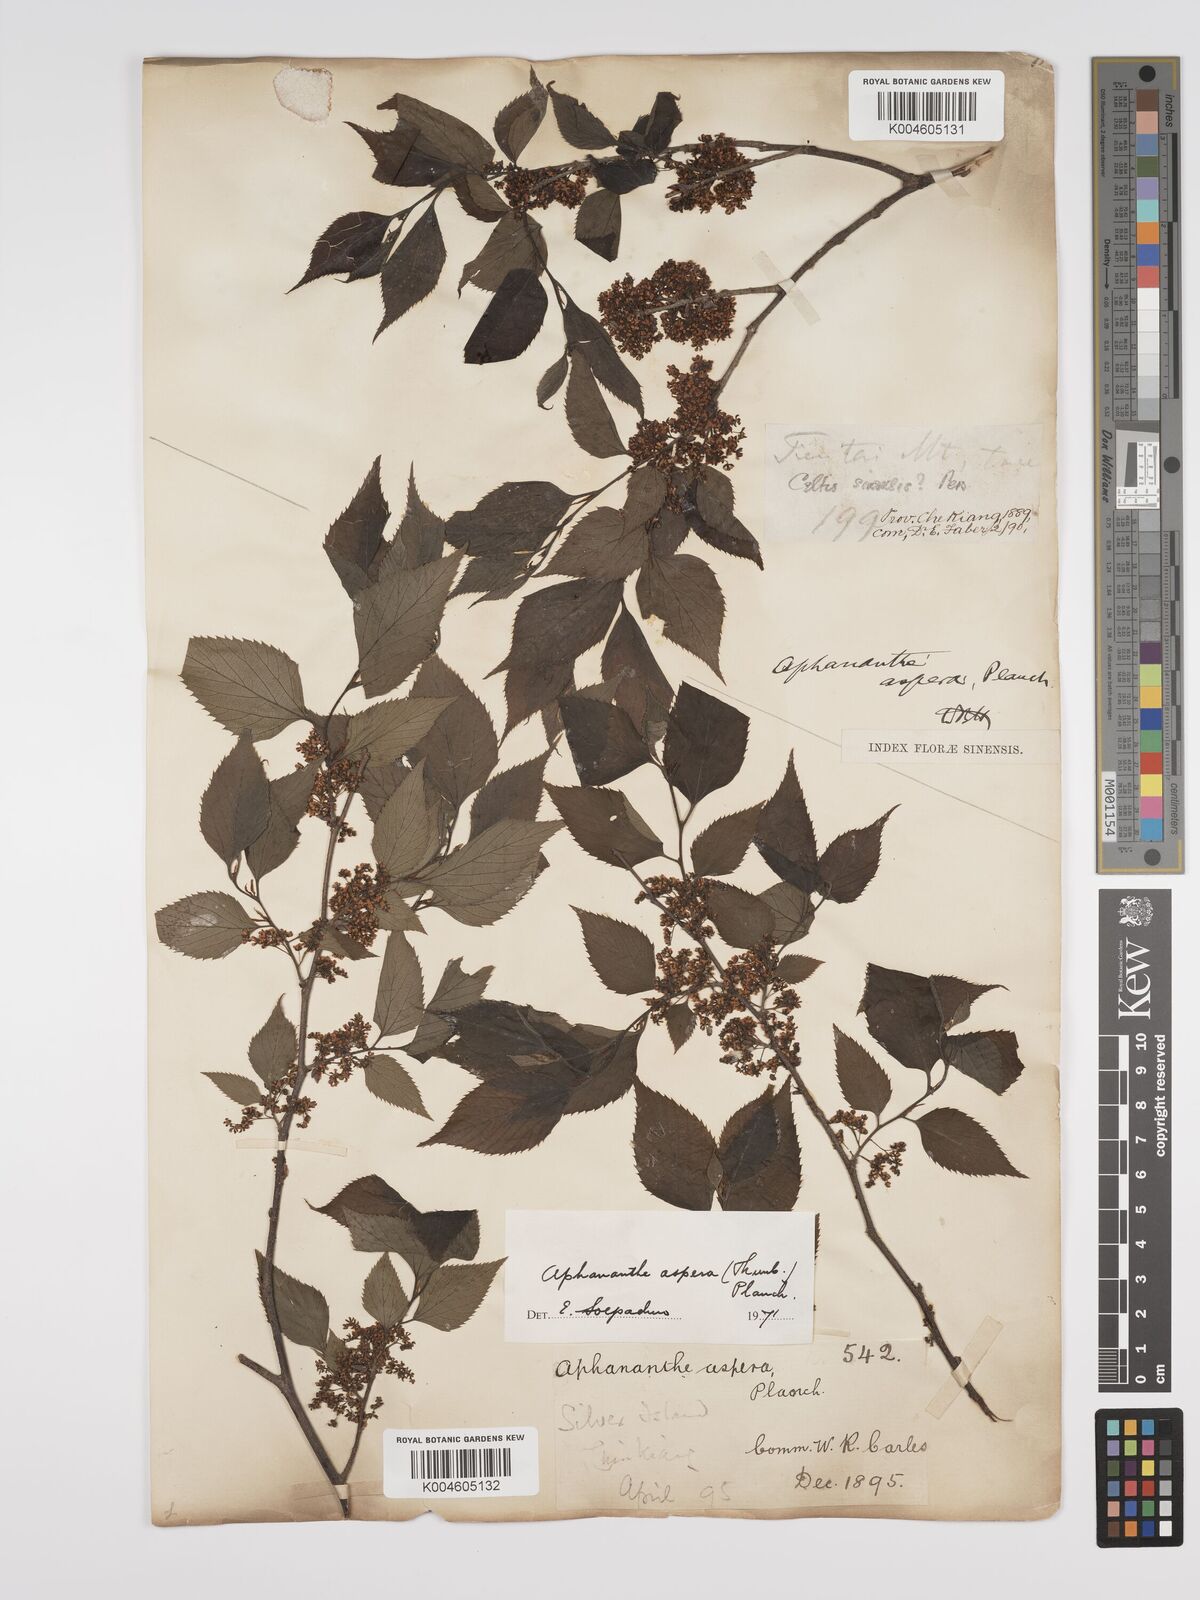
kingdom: Plantae
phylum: Tracheophyta
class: Magnoliopsida
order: Rosales
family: Cannabaceae
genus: Aphananthe
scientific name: Aphananthe aspera
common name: Mukutree
